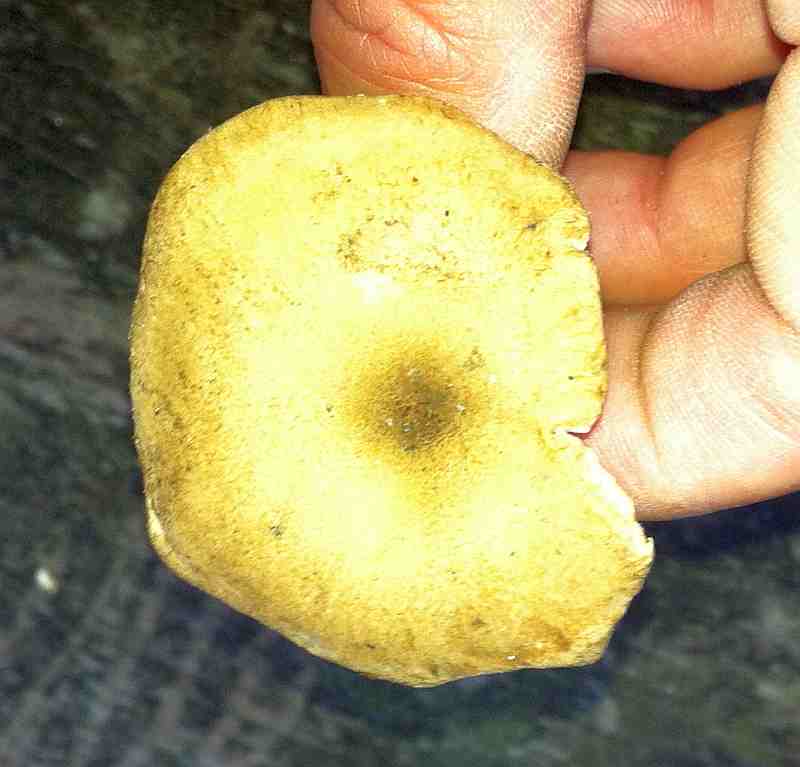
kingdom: Fungi
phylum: Basidiomycota
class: Agaricomycetes
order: Agaricales
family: Tricholomataceae
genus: Infundibulicybe
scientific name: Infundibulicybe squamulosa
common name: småskællet tragthat
